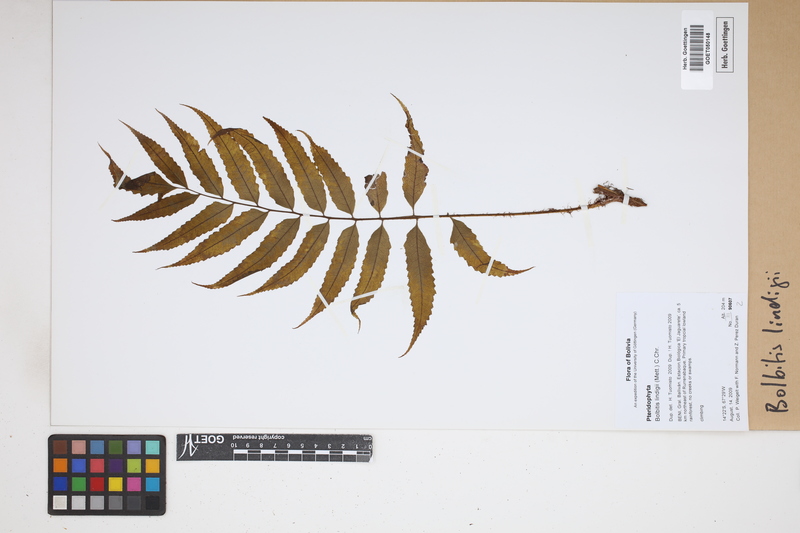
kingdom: Plantae
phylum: Tracheophyta
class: Polypodiopsida
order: Polypodiales
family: Dryopteridaceae
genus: Mickelia
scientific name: Mickelia lindigii
